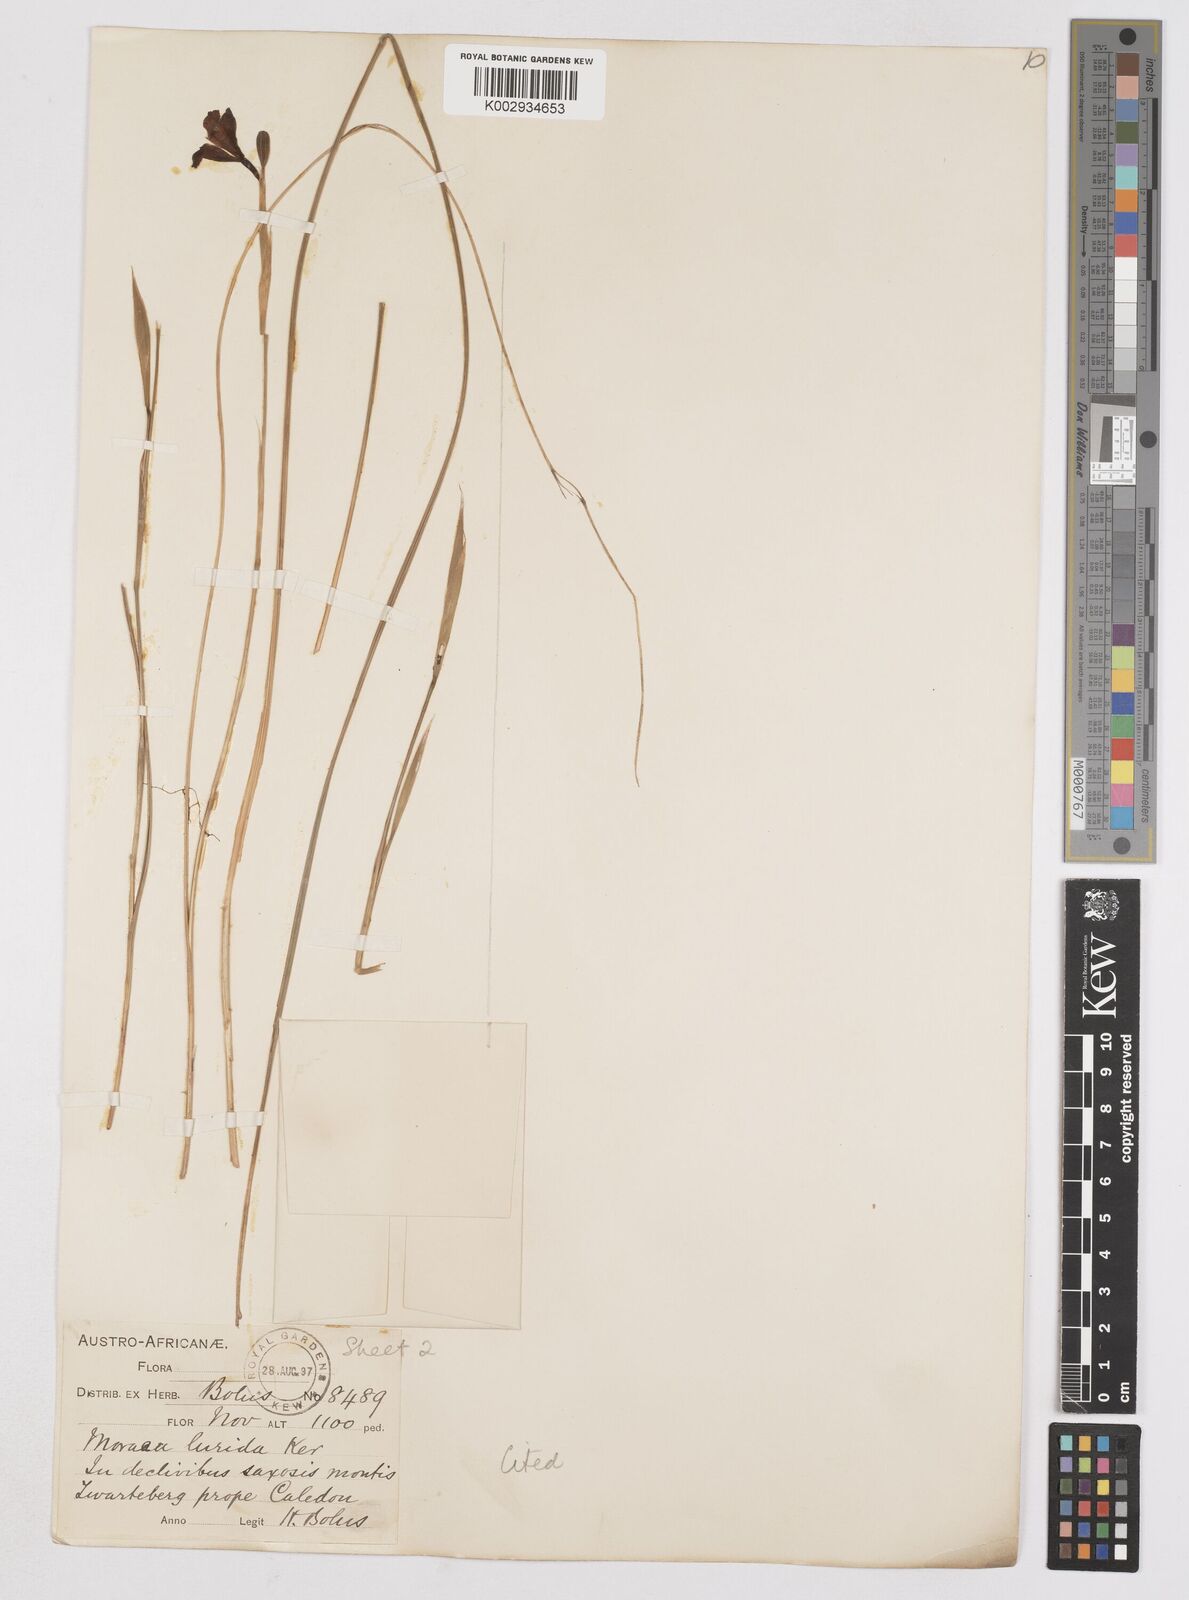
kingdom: Plantae
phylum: Tracheophyta
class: Liliopsida
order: Asparagales
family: Iridaceae
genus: Moraea
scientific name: Moraea lurida
